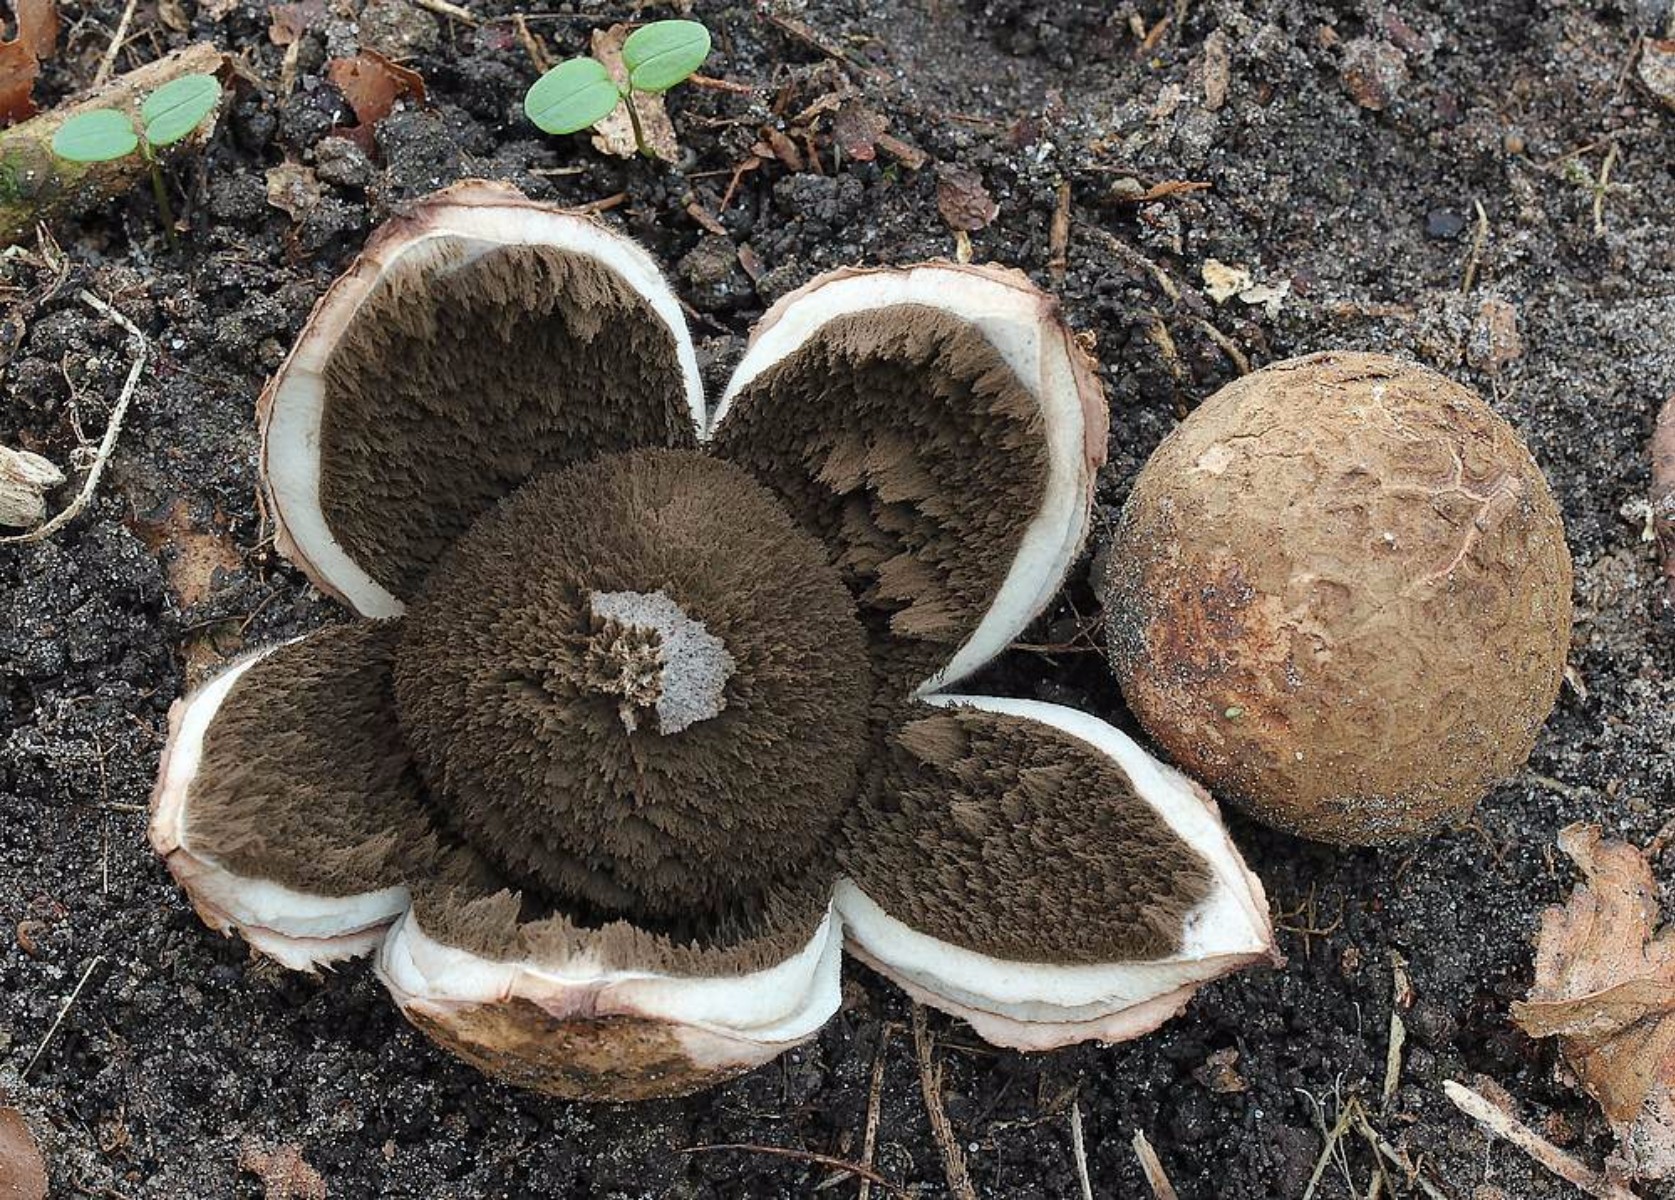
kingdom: Fungi
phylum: Basidiomycota
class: Agaricomycetes
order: Geastrales
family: Geastraceae
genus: Geastrum
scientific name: Geastrum melanocephalum
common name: håret stjernebold
